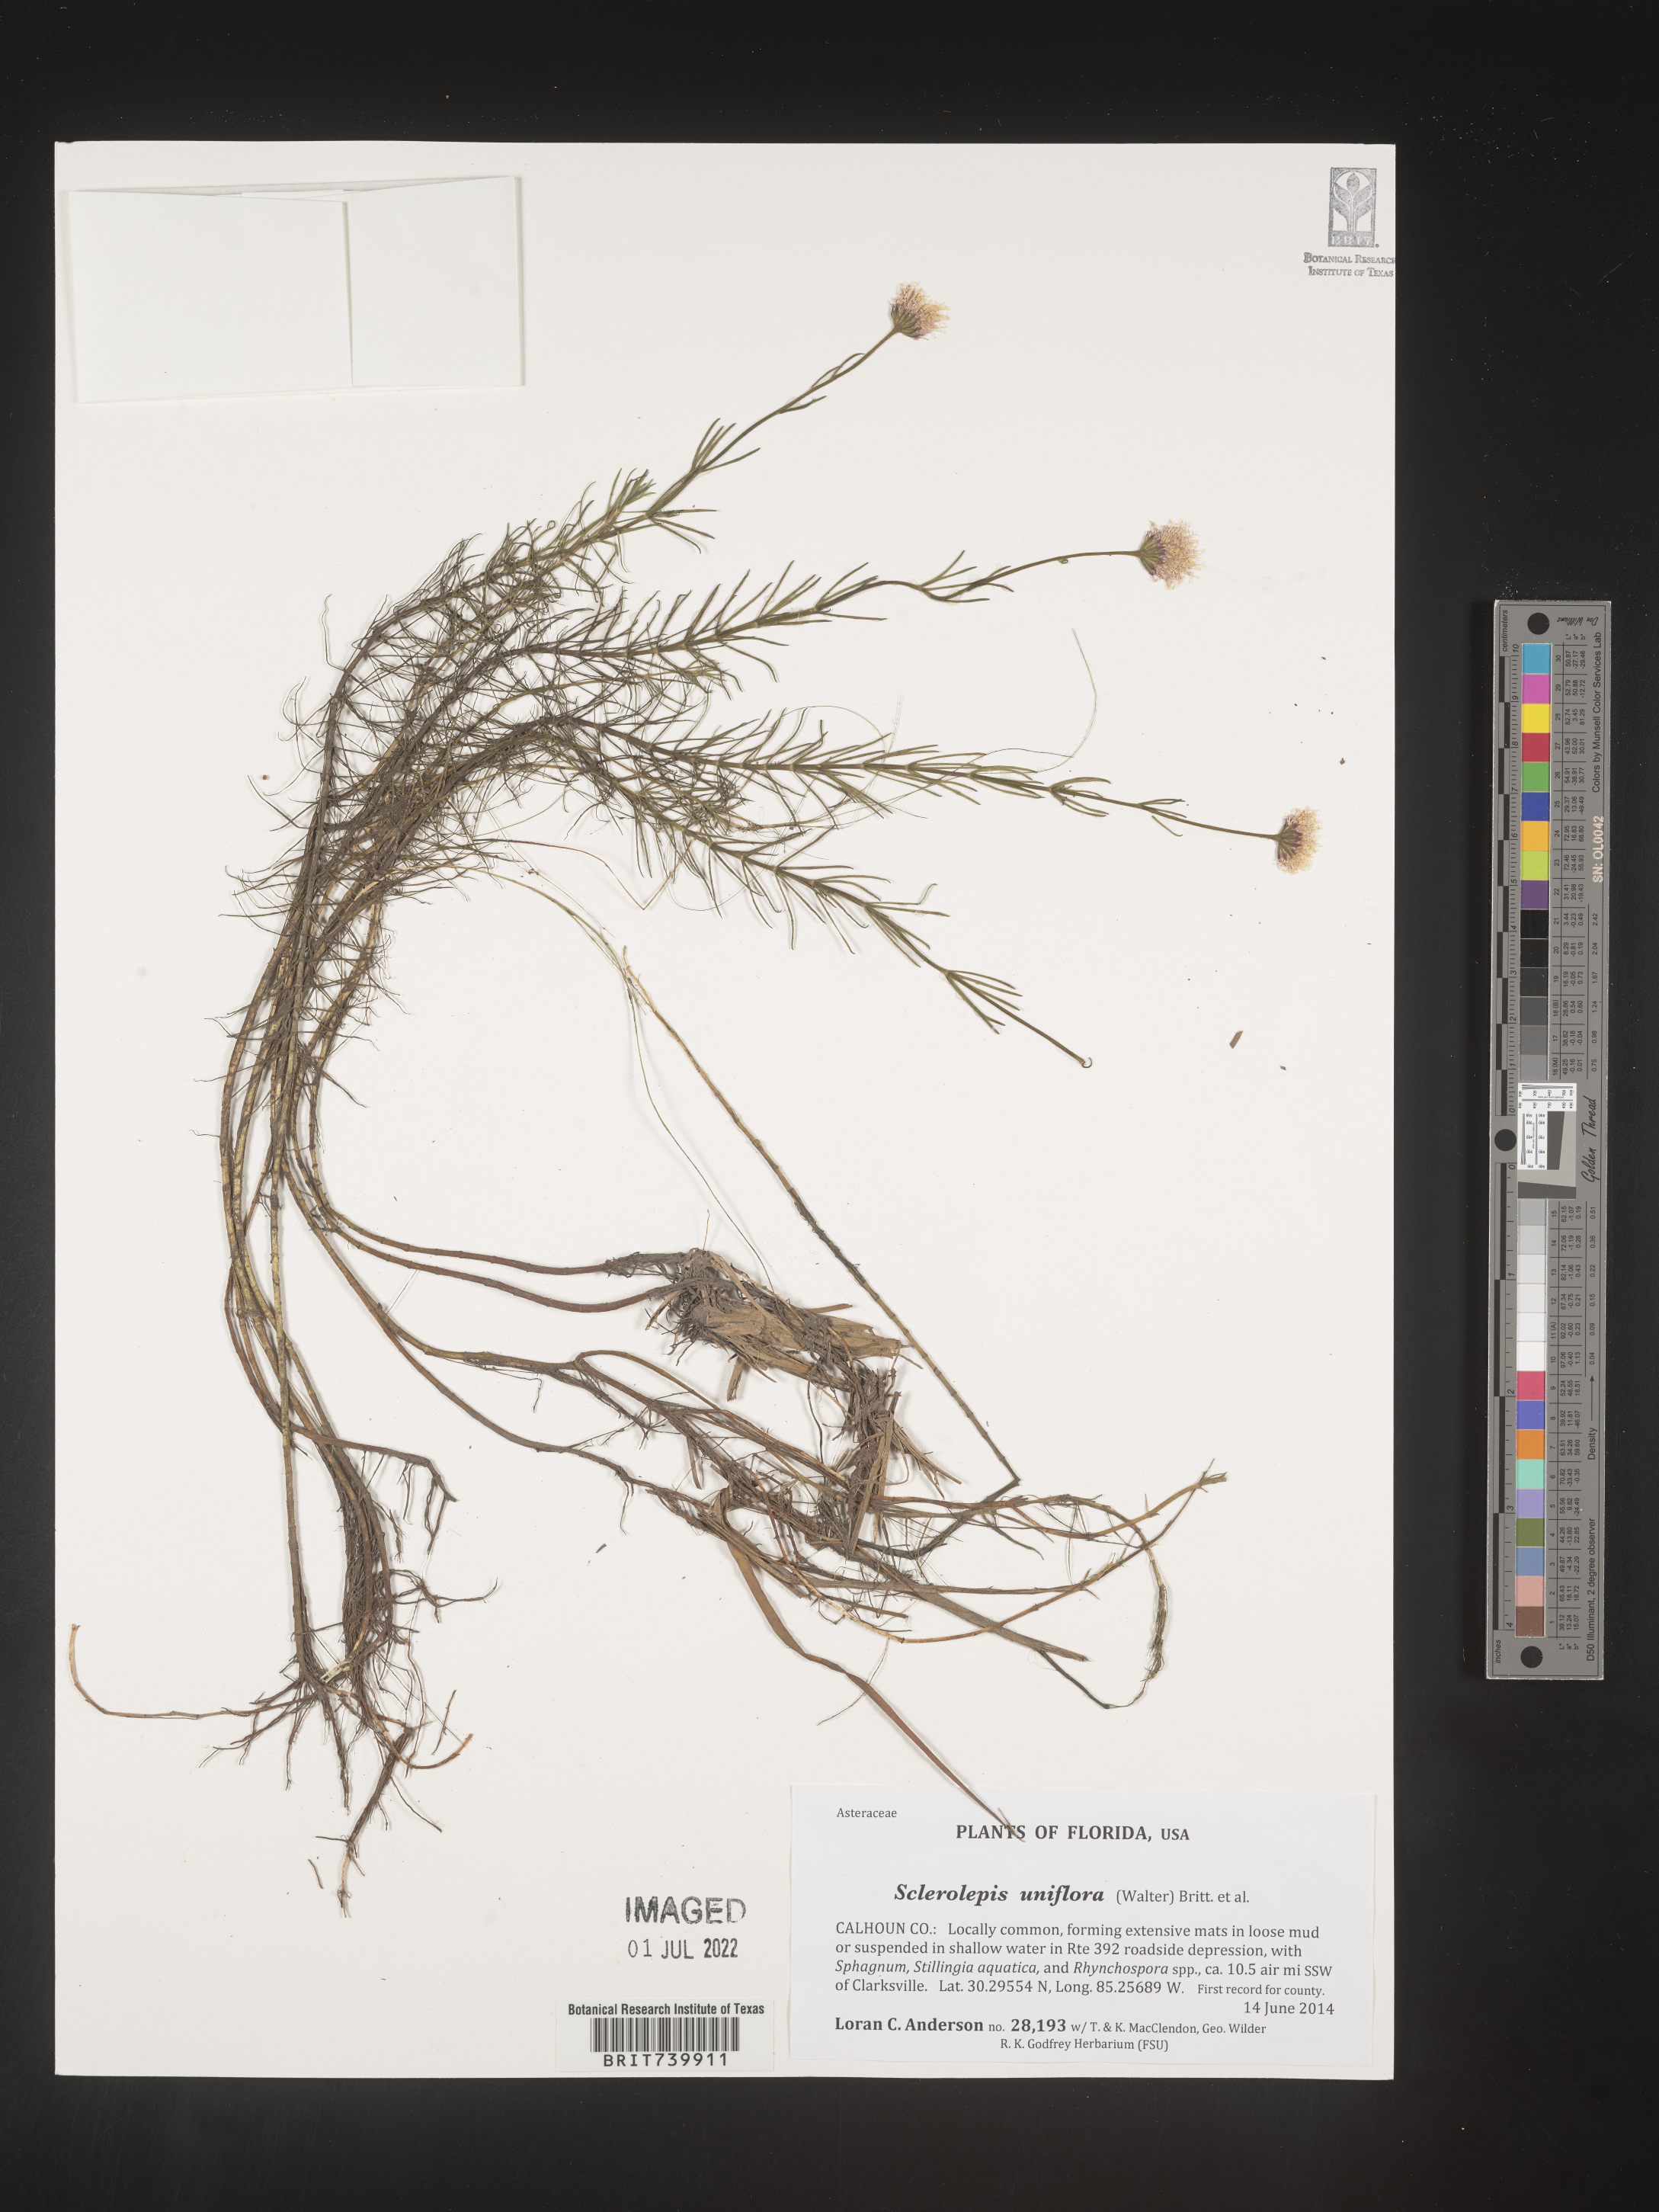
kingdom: Plantae
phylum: Tracheophyta
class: Magnoliopsida
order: Asterales
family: Asteraceae
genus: Sclerolepis
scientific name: Sclerolepis
